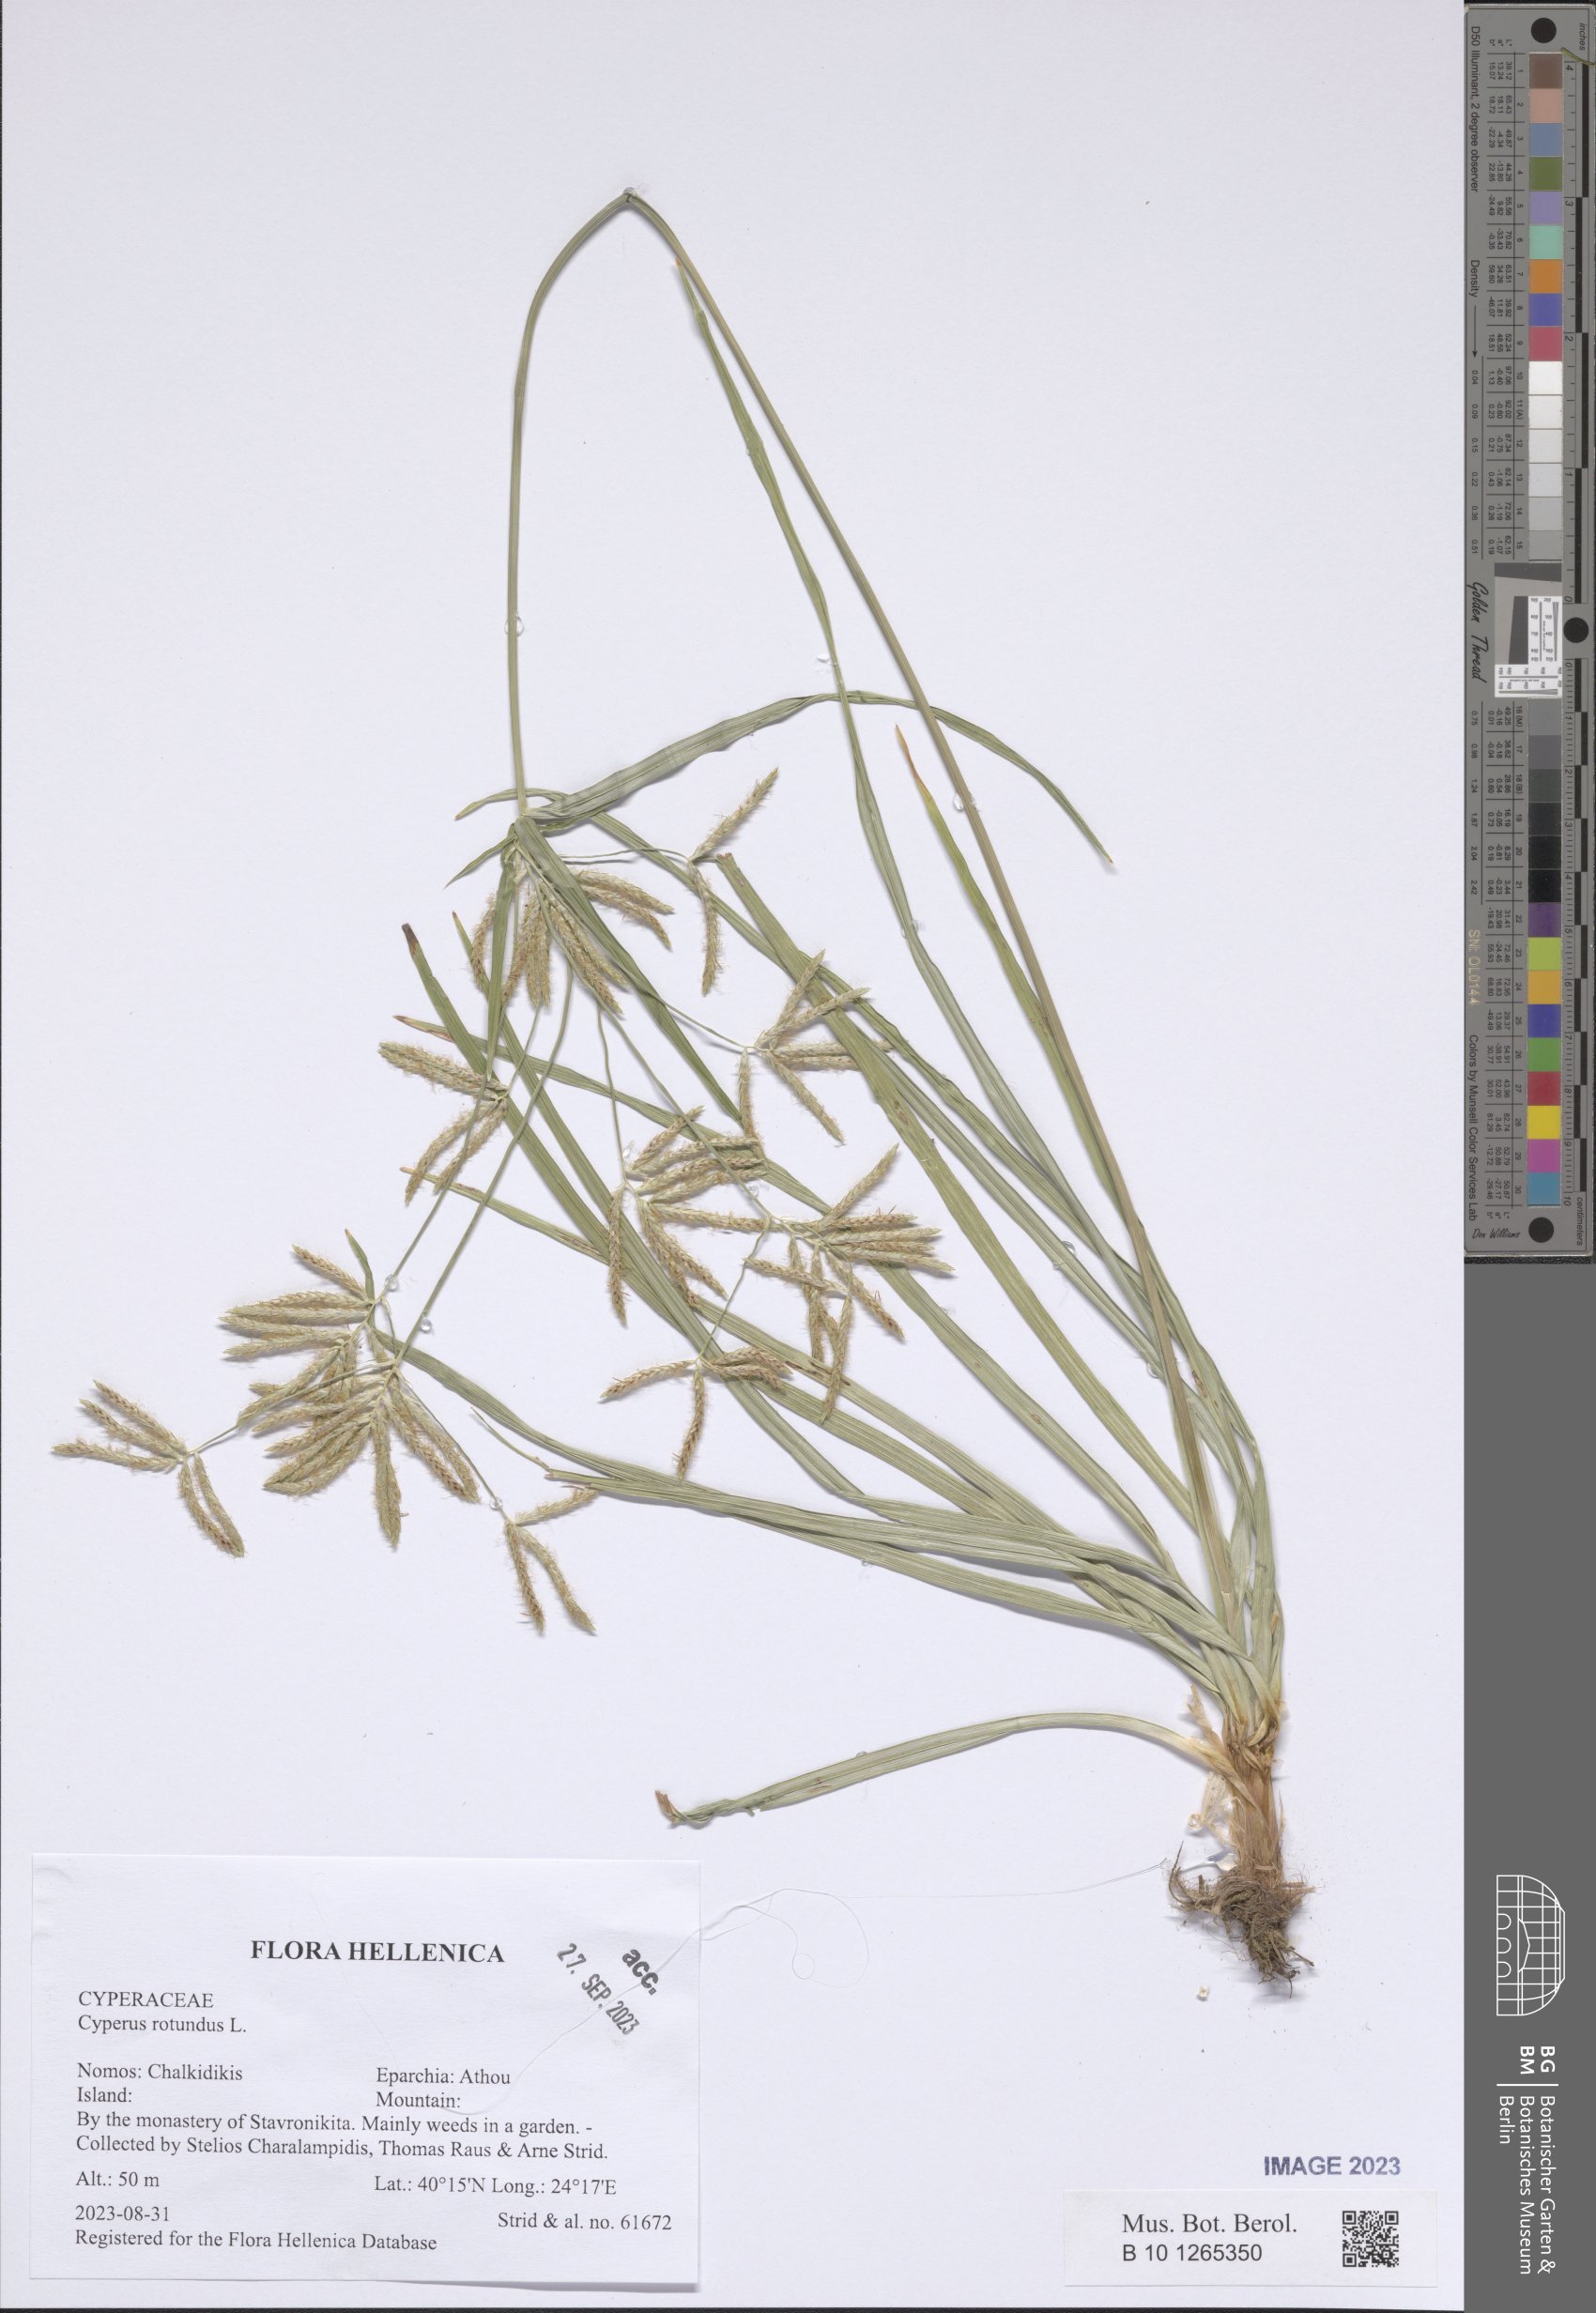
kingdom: Plantae
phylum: Tracheophyta
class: Liliopsida
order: Poales
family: Cyperaceae
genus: Cyperus
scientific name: Cyperus rotundus
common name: Nutgrass
